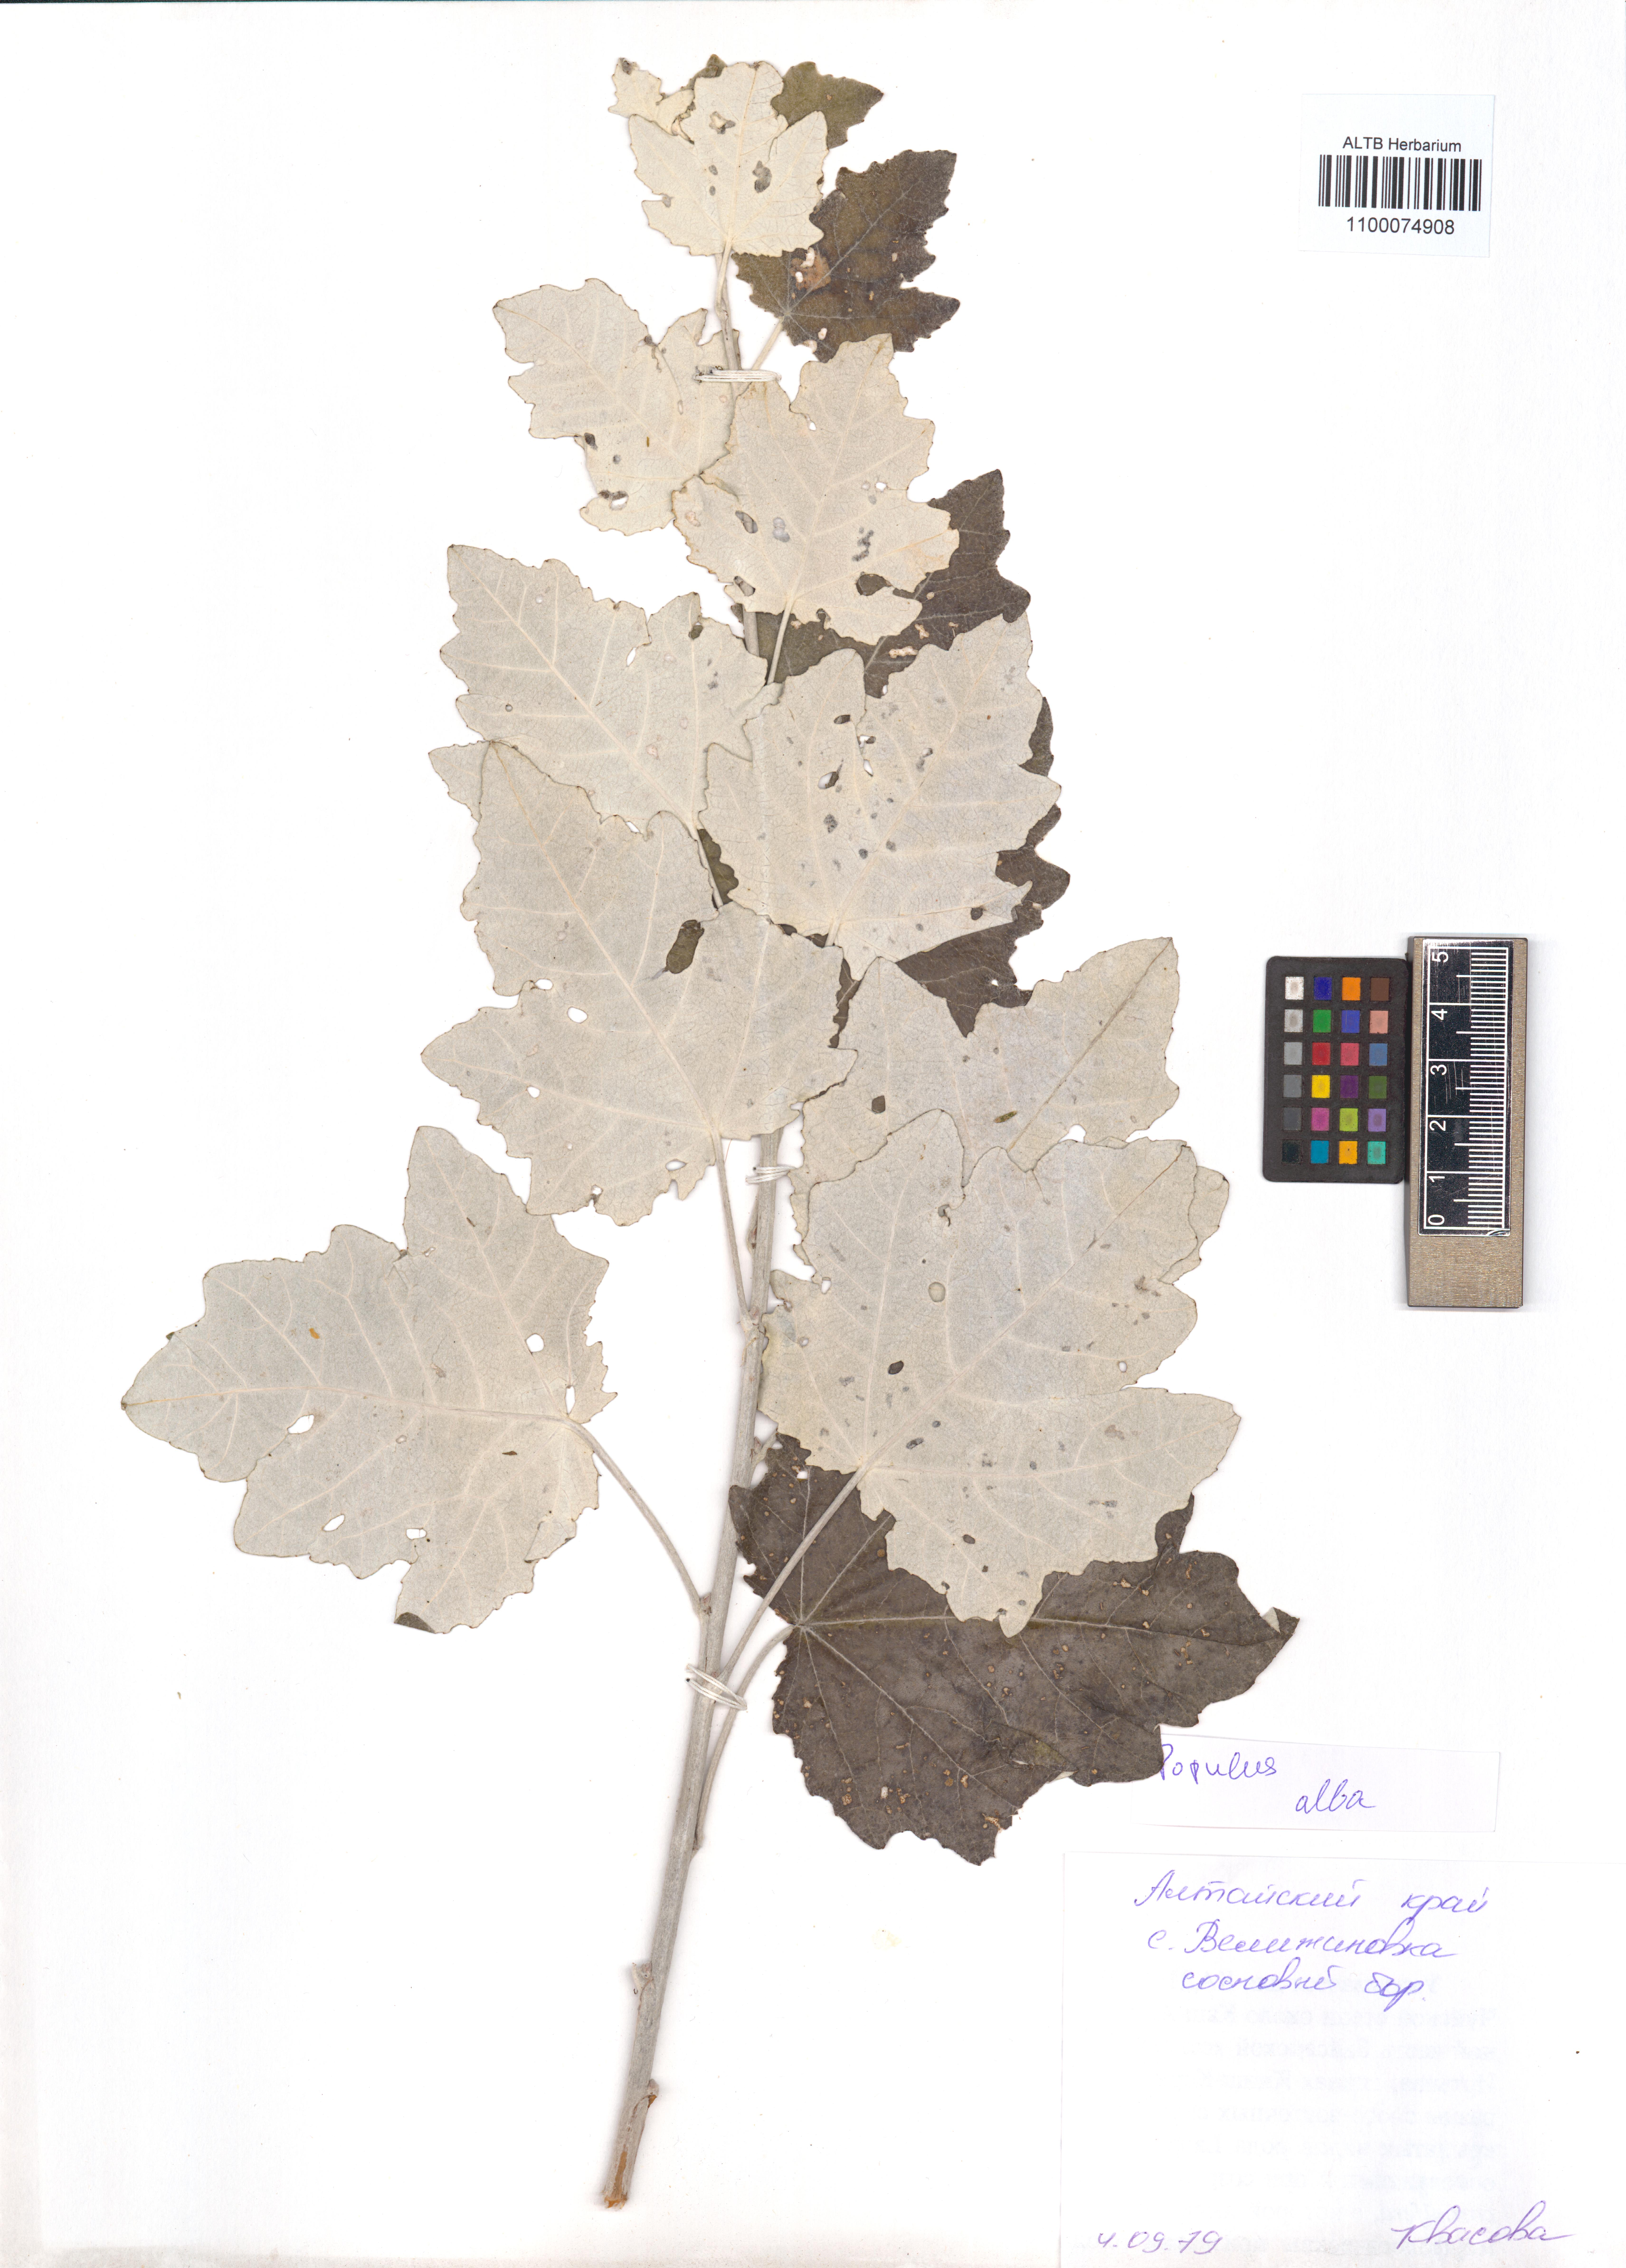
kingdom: Plantae
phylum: Tracheophyta
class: Magnoliopsida
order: Malpighiales
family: Salicaceae
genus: Populus
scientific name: Populus alba
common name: White poplar
